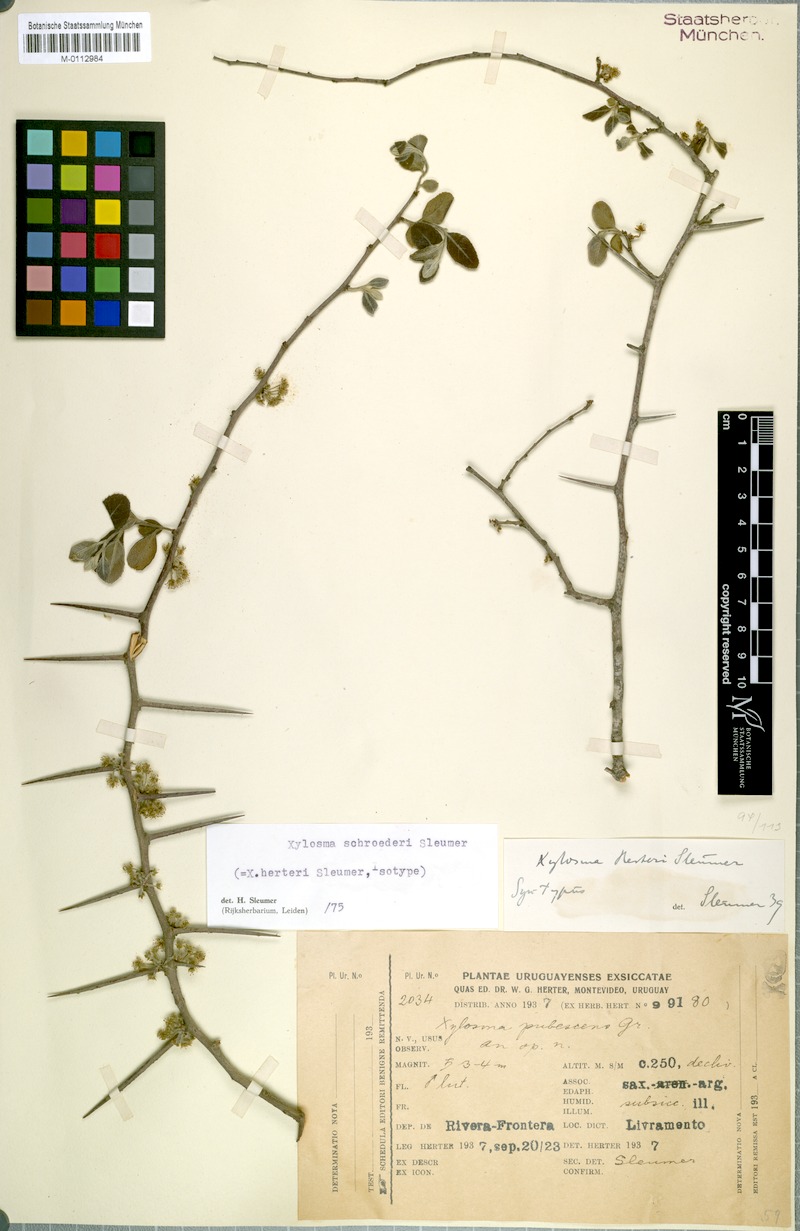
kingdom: Plantae
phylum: Tracheophyta
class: Magnoliopsida
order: Malpighiales
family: Salicaceae
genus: Xylosma
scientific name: Xylosma schroederi
